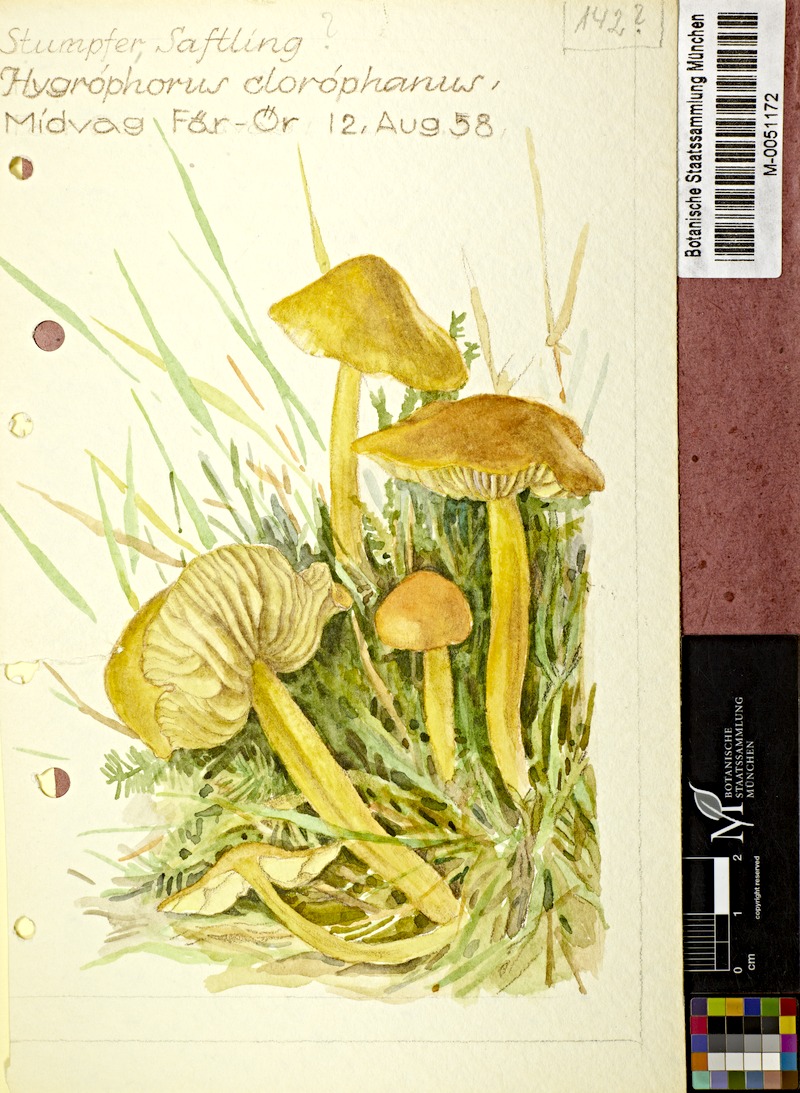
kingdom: Fungi
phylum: Basidiomycota
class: Agaricomycetes
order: Agaricales
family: Hygrophoraceae
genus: Hygrocybe
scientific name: Hygrocybe chlorophana
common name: Golden waxcap
